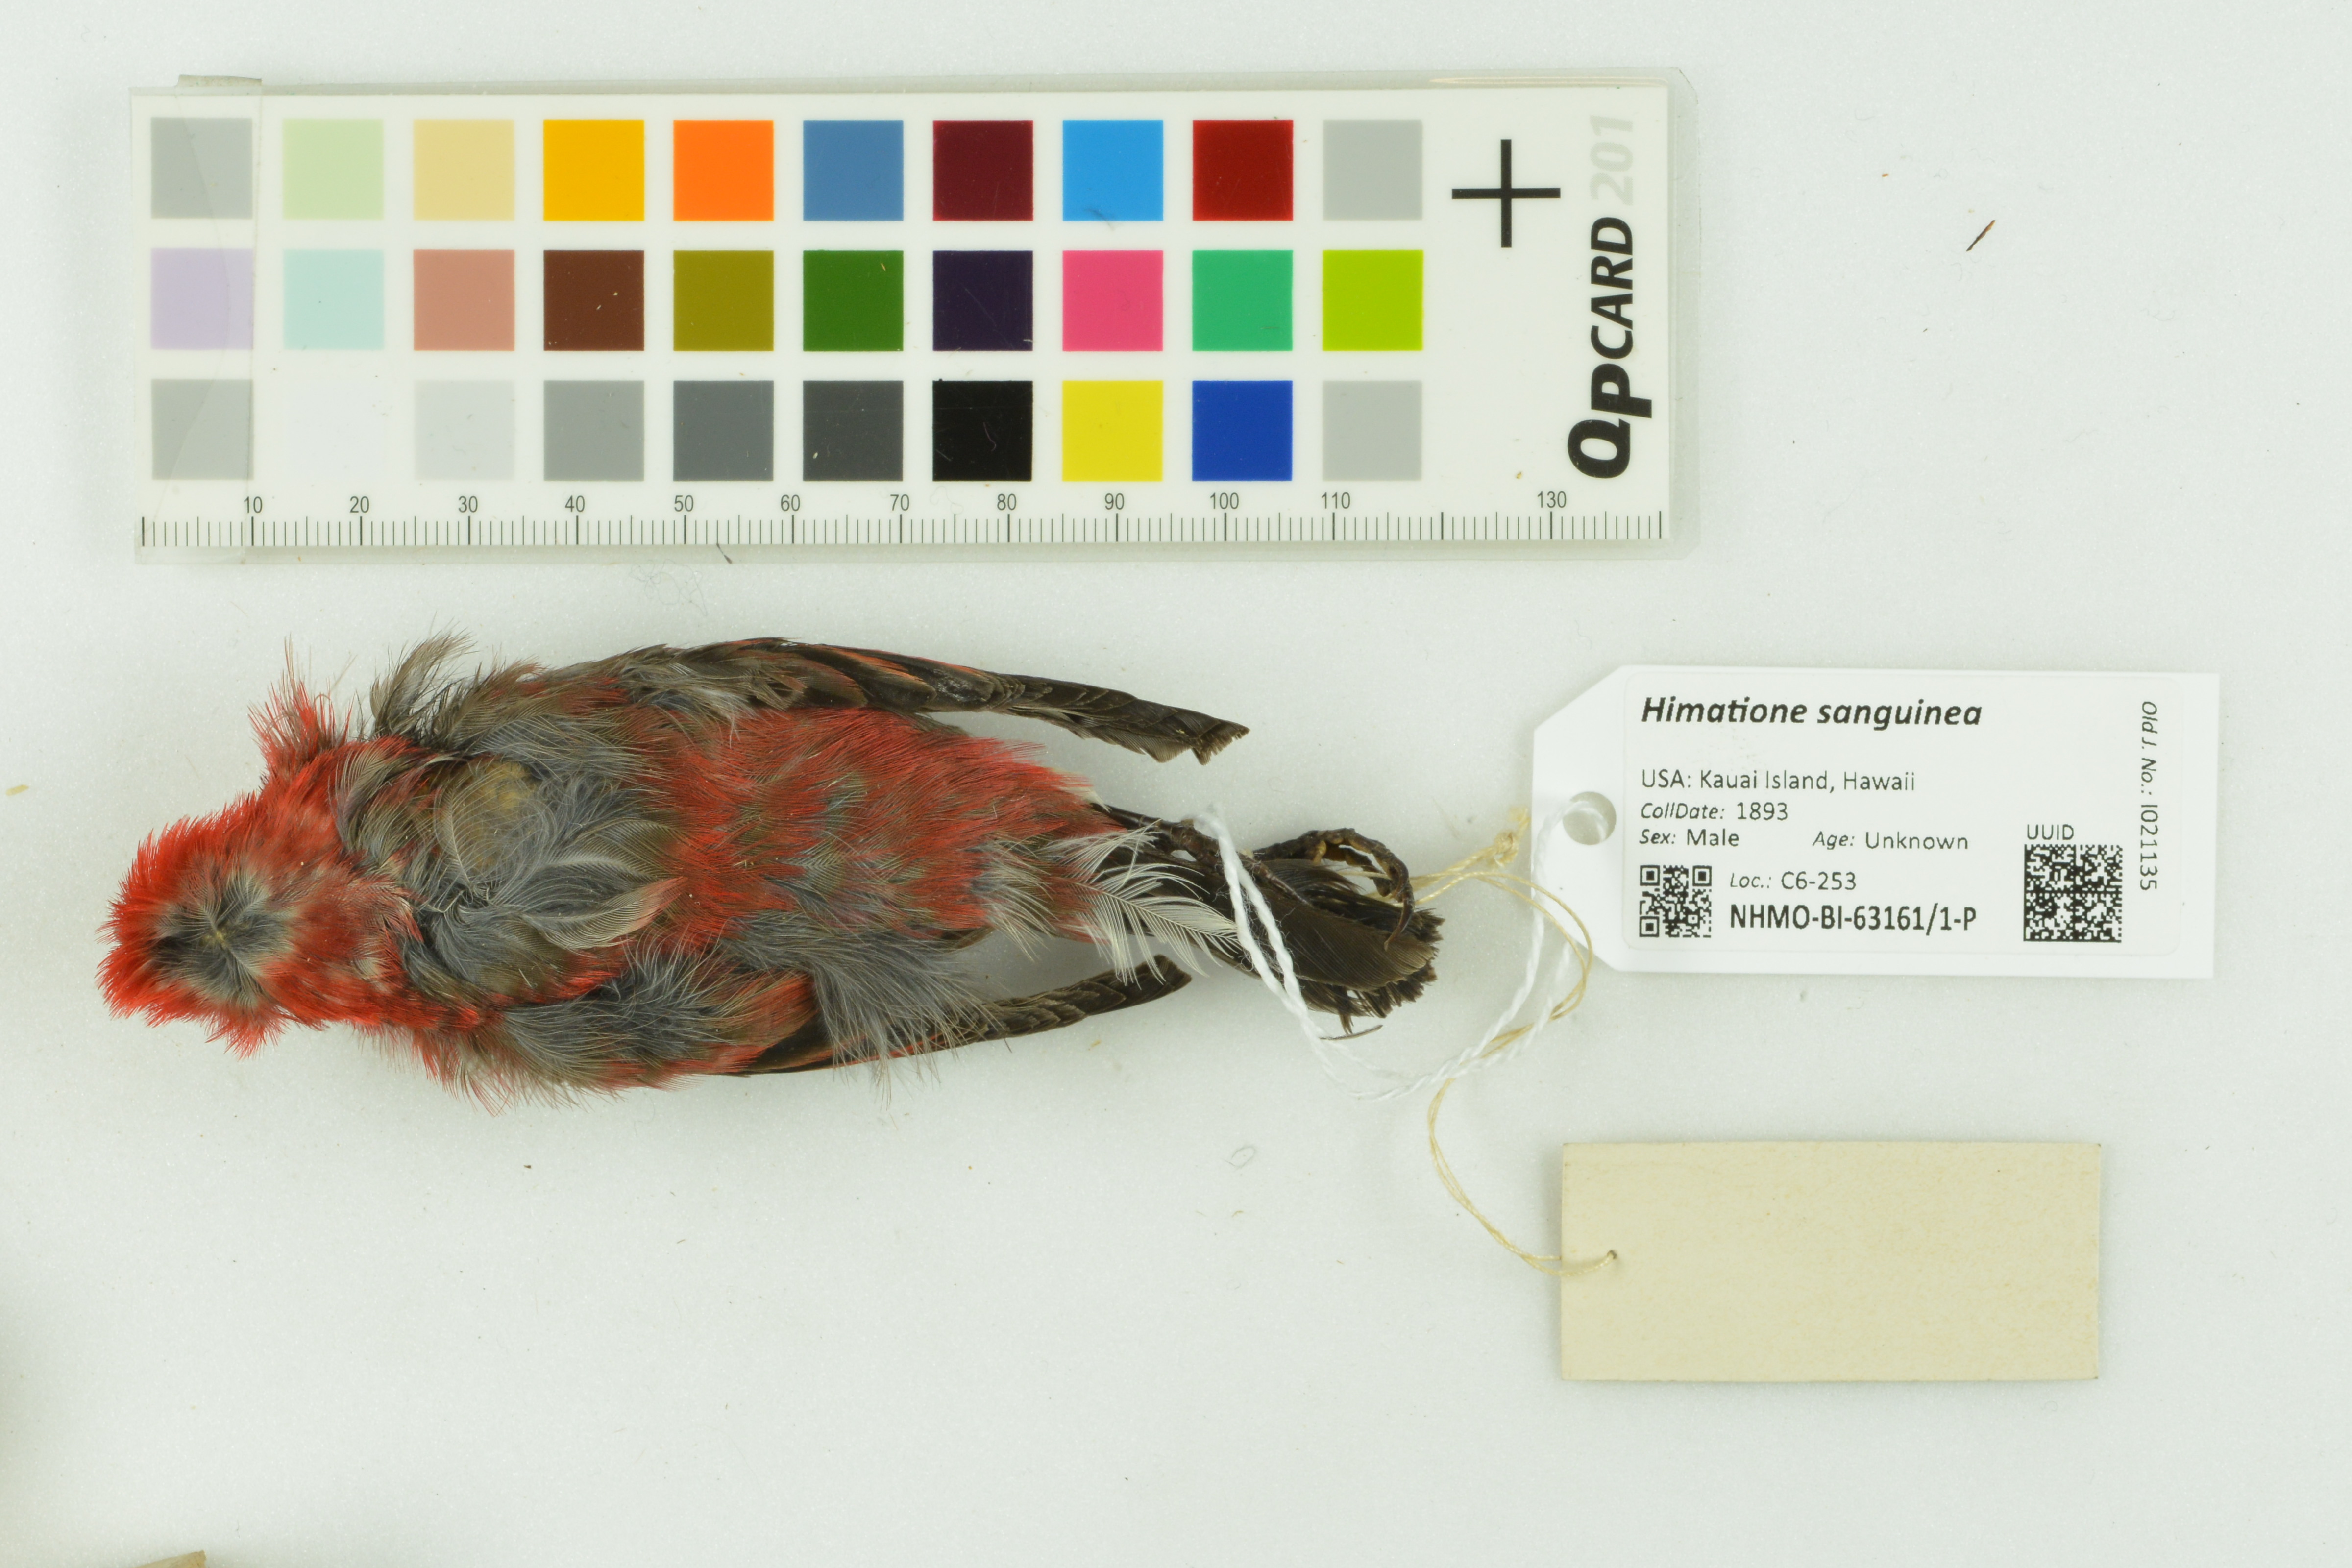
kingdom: Animalia
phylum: Chordata
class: Aves
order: Passeriformes
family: Fringillidae
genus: Himatione
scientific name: Himatione sanguinea
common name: Apapane
